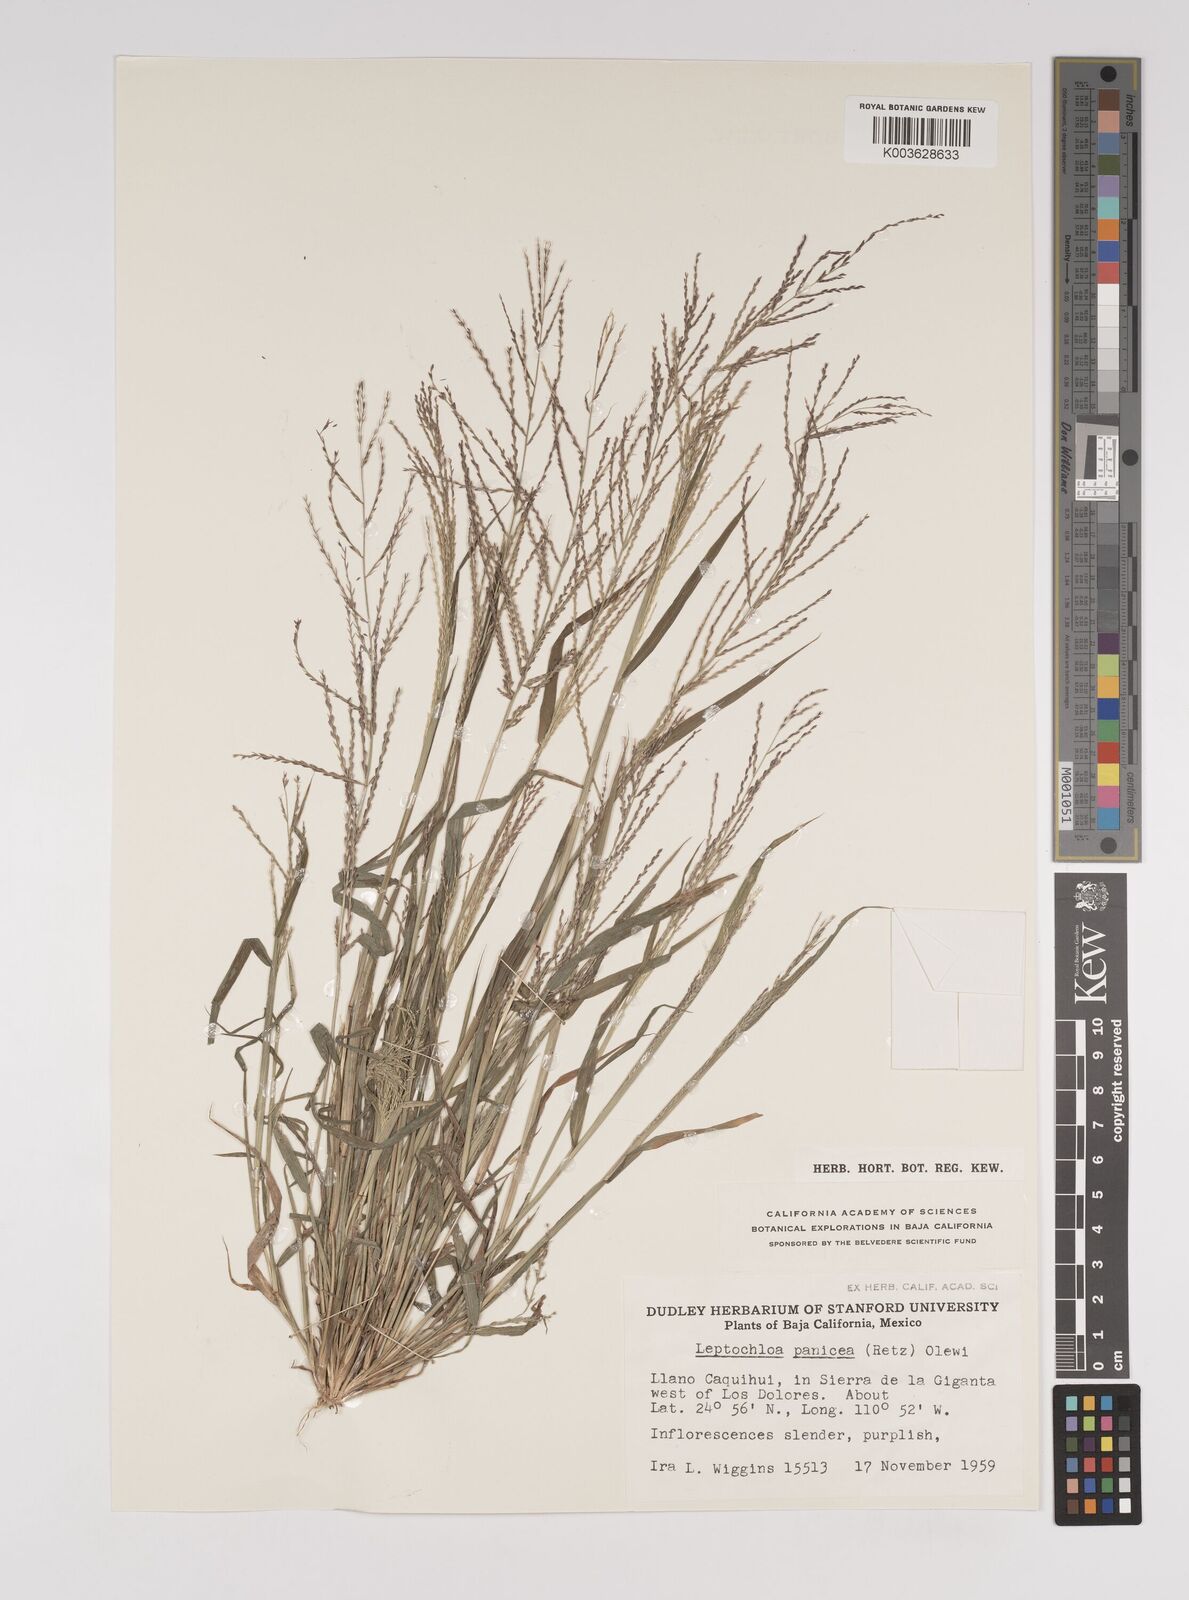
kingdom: Plantae
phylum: Tracheophyta
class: Liliopsida
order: Poales
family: Poaceae
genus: Leptochloa
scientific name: Leptochloa panicea
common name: Mucronate sprangletop
